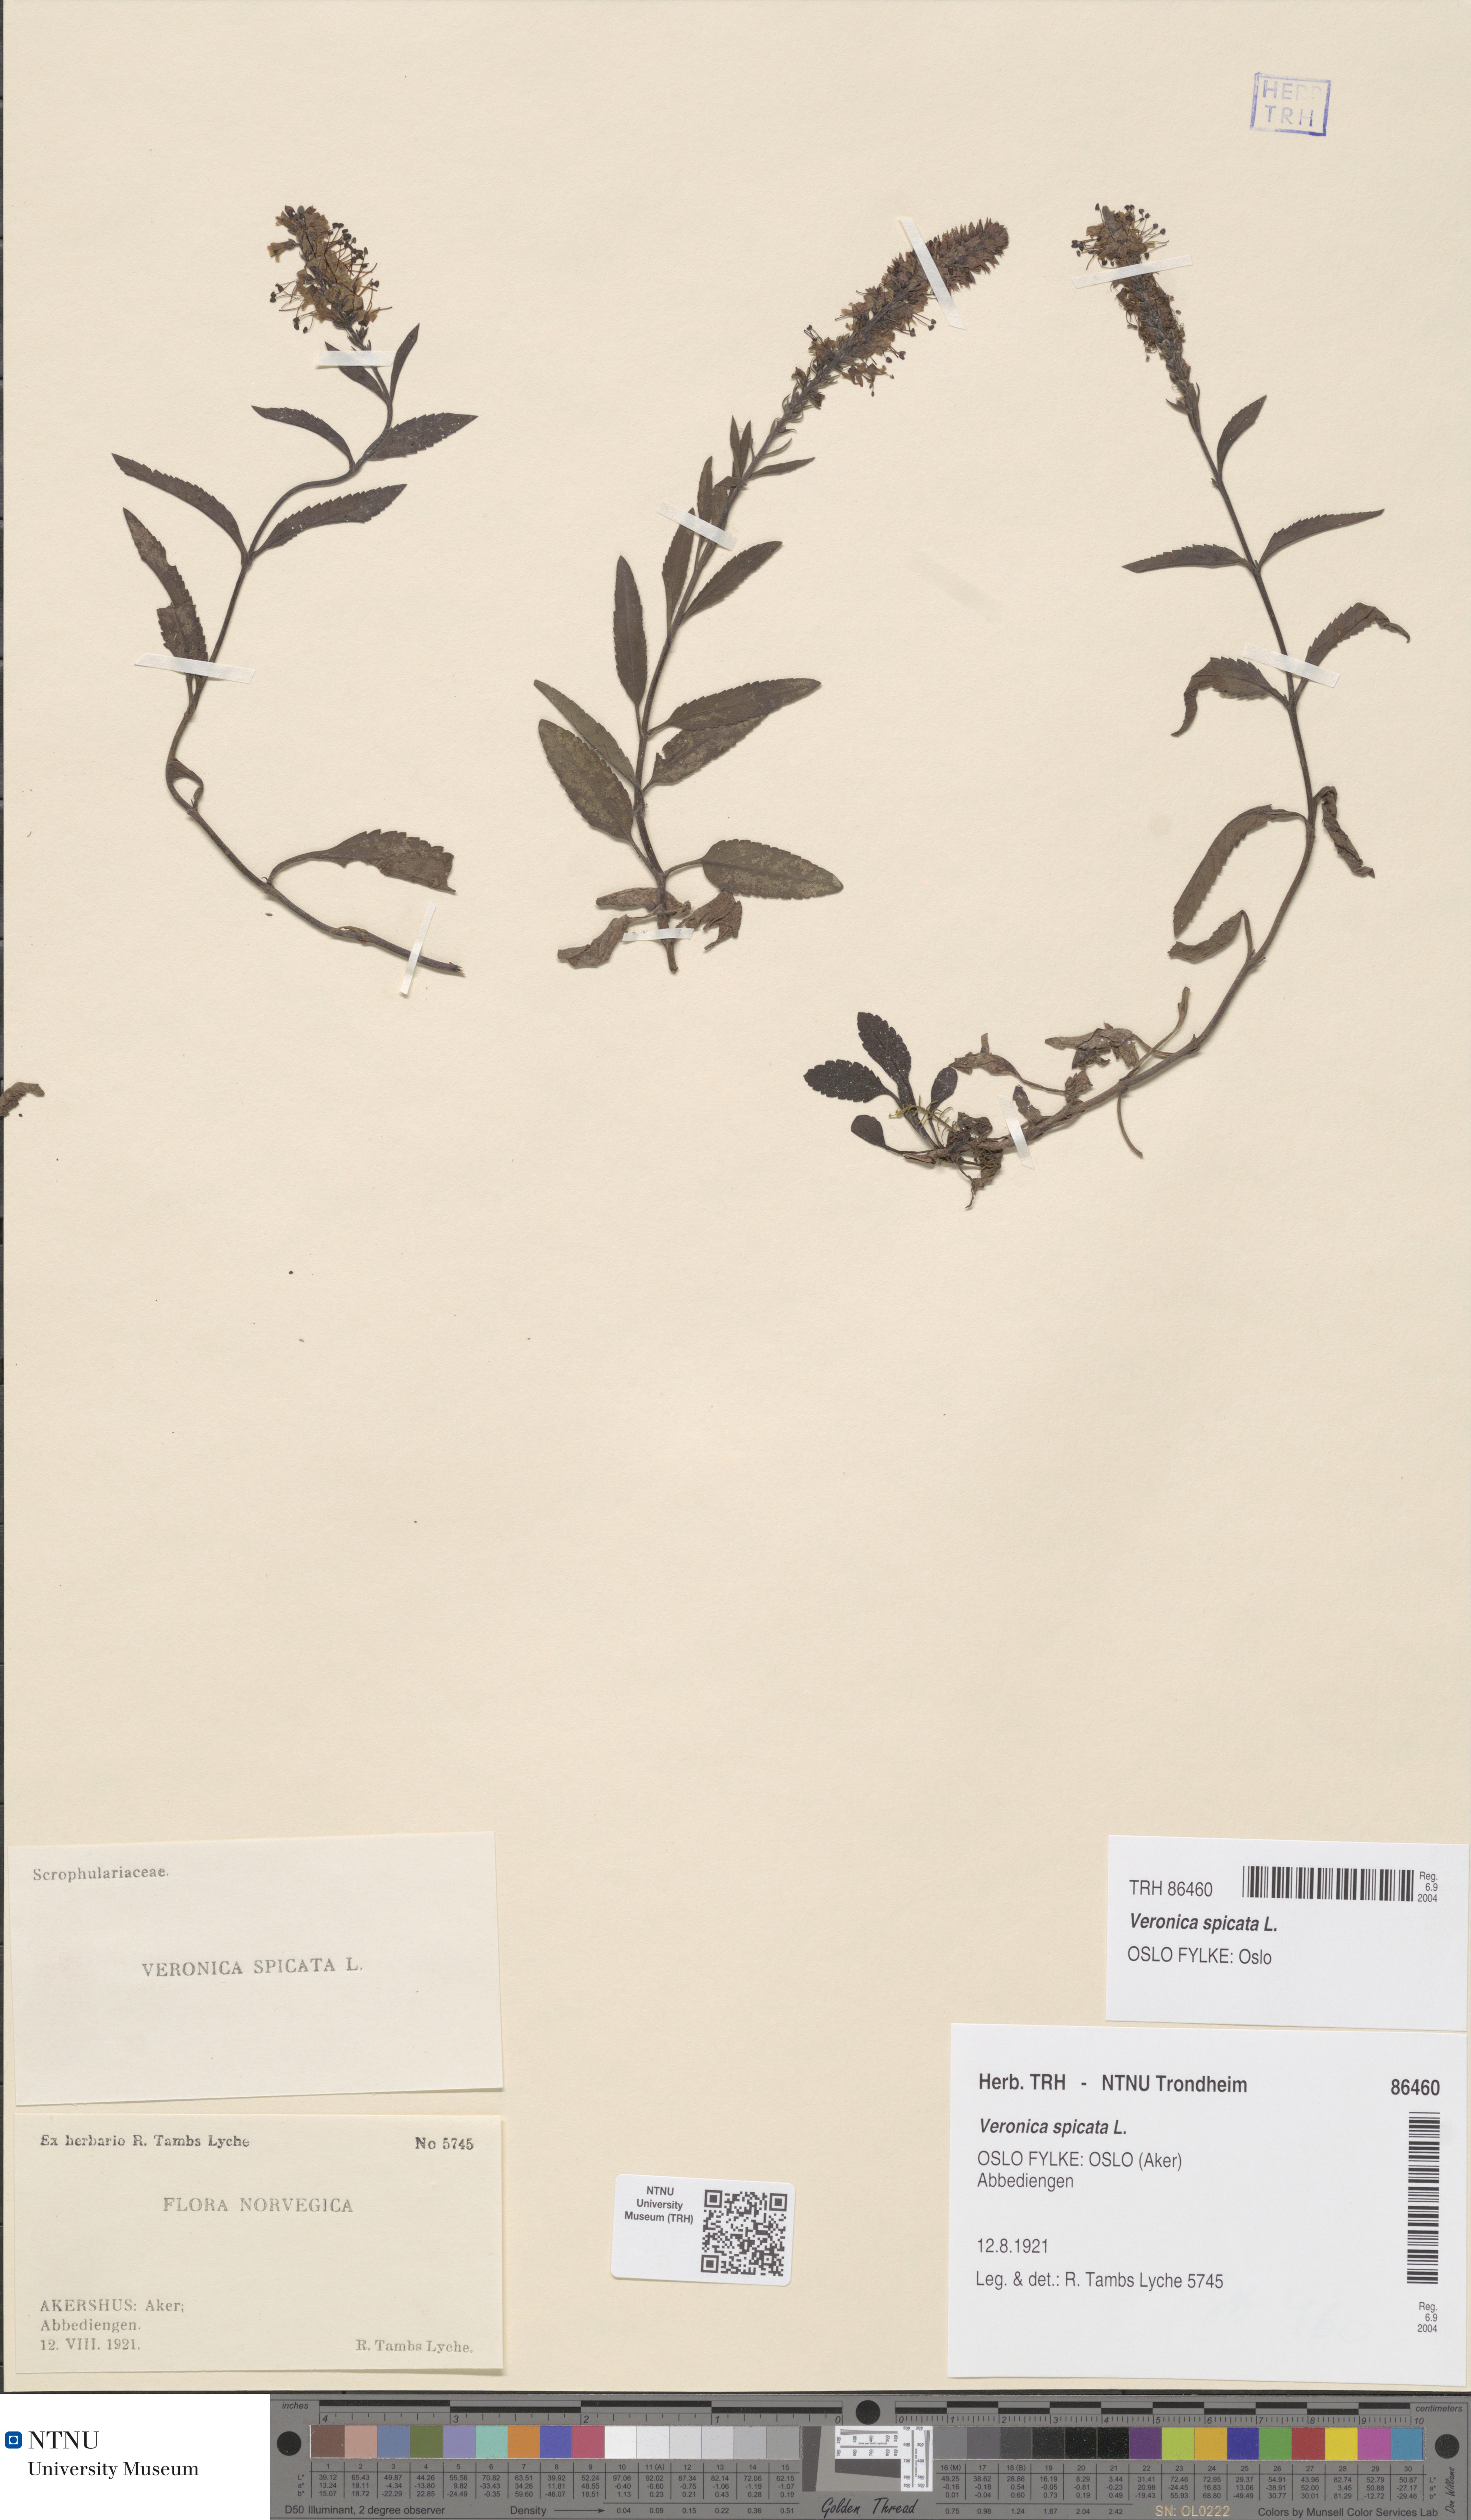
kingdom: Plantae
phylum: Tracheophyta
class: Magnoliopsida
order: Lamiales
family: Plantaginaceae
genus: Veronica
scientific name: Veronica spicata
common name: Spiked speedwell
